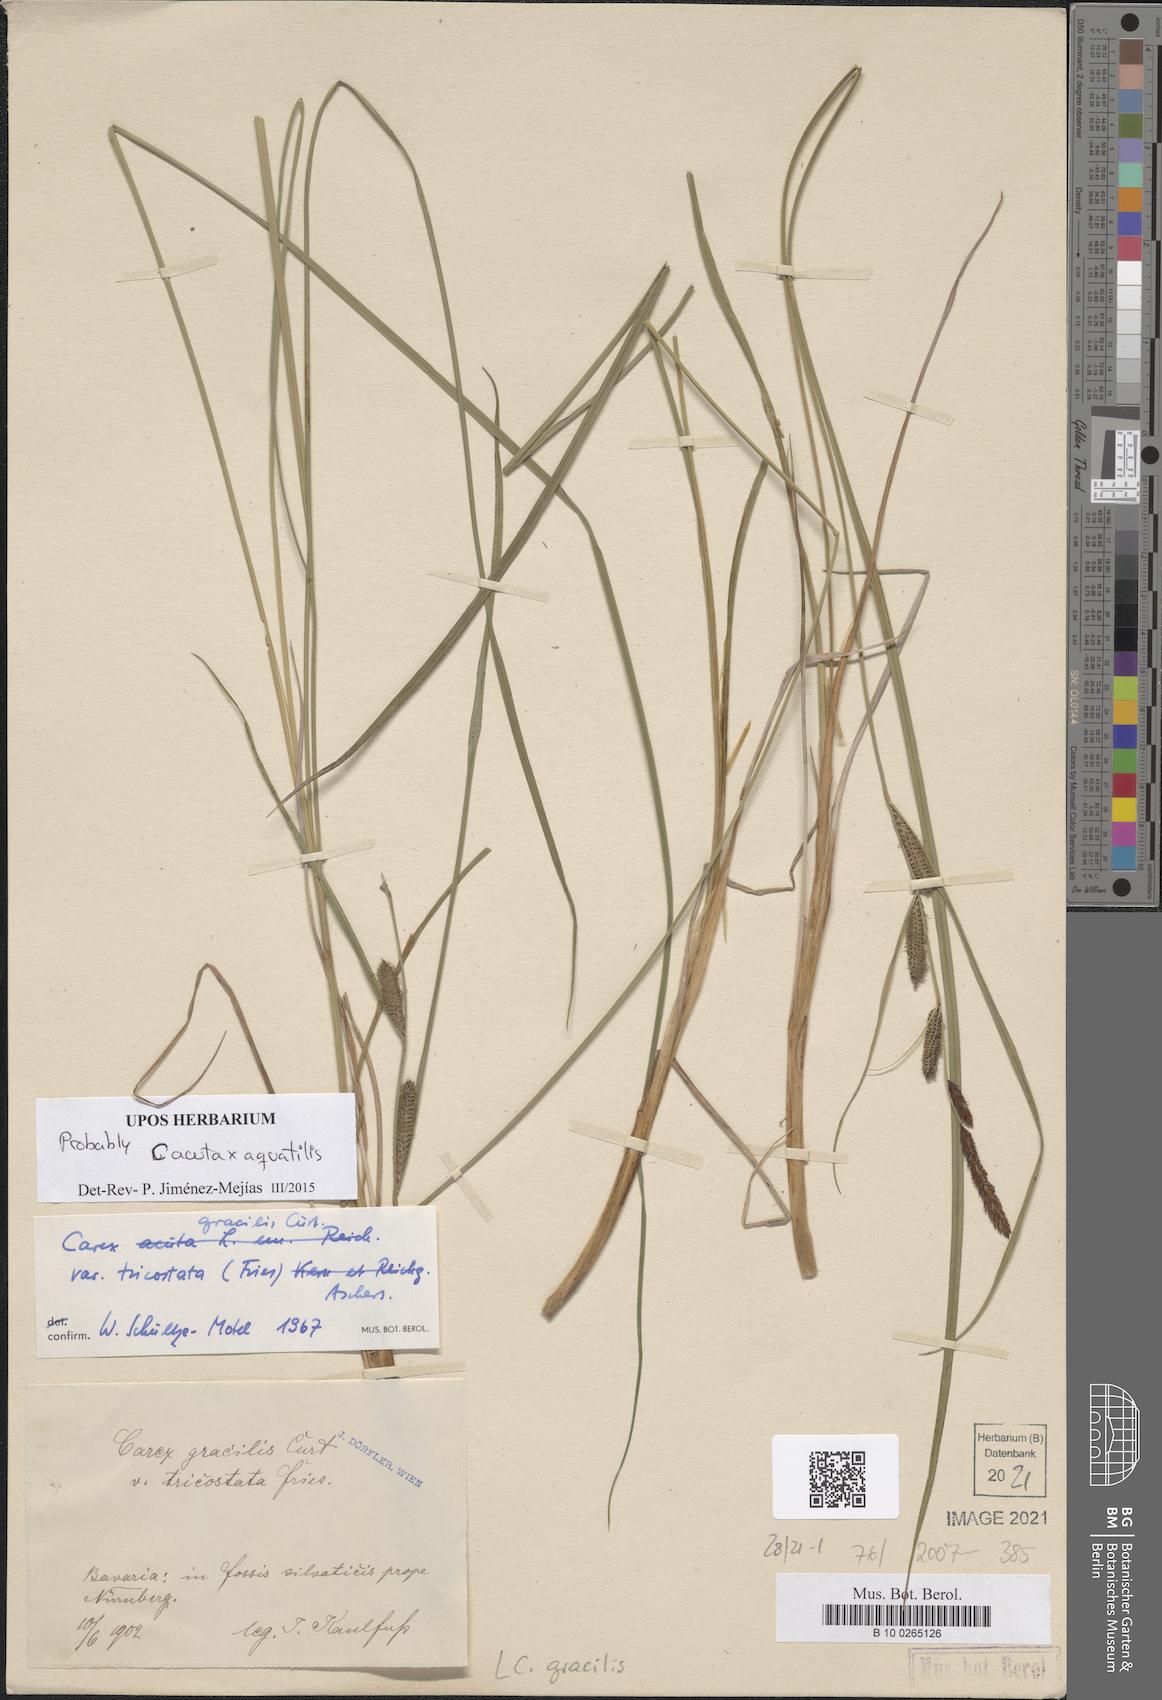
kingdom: Plantae
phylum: Tracheophyta
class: Liliopsida
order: Poales
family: Cyperaceae
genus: Carex
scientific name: Carex acuta
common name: Slender tufted-sedge
